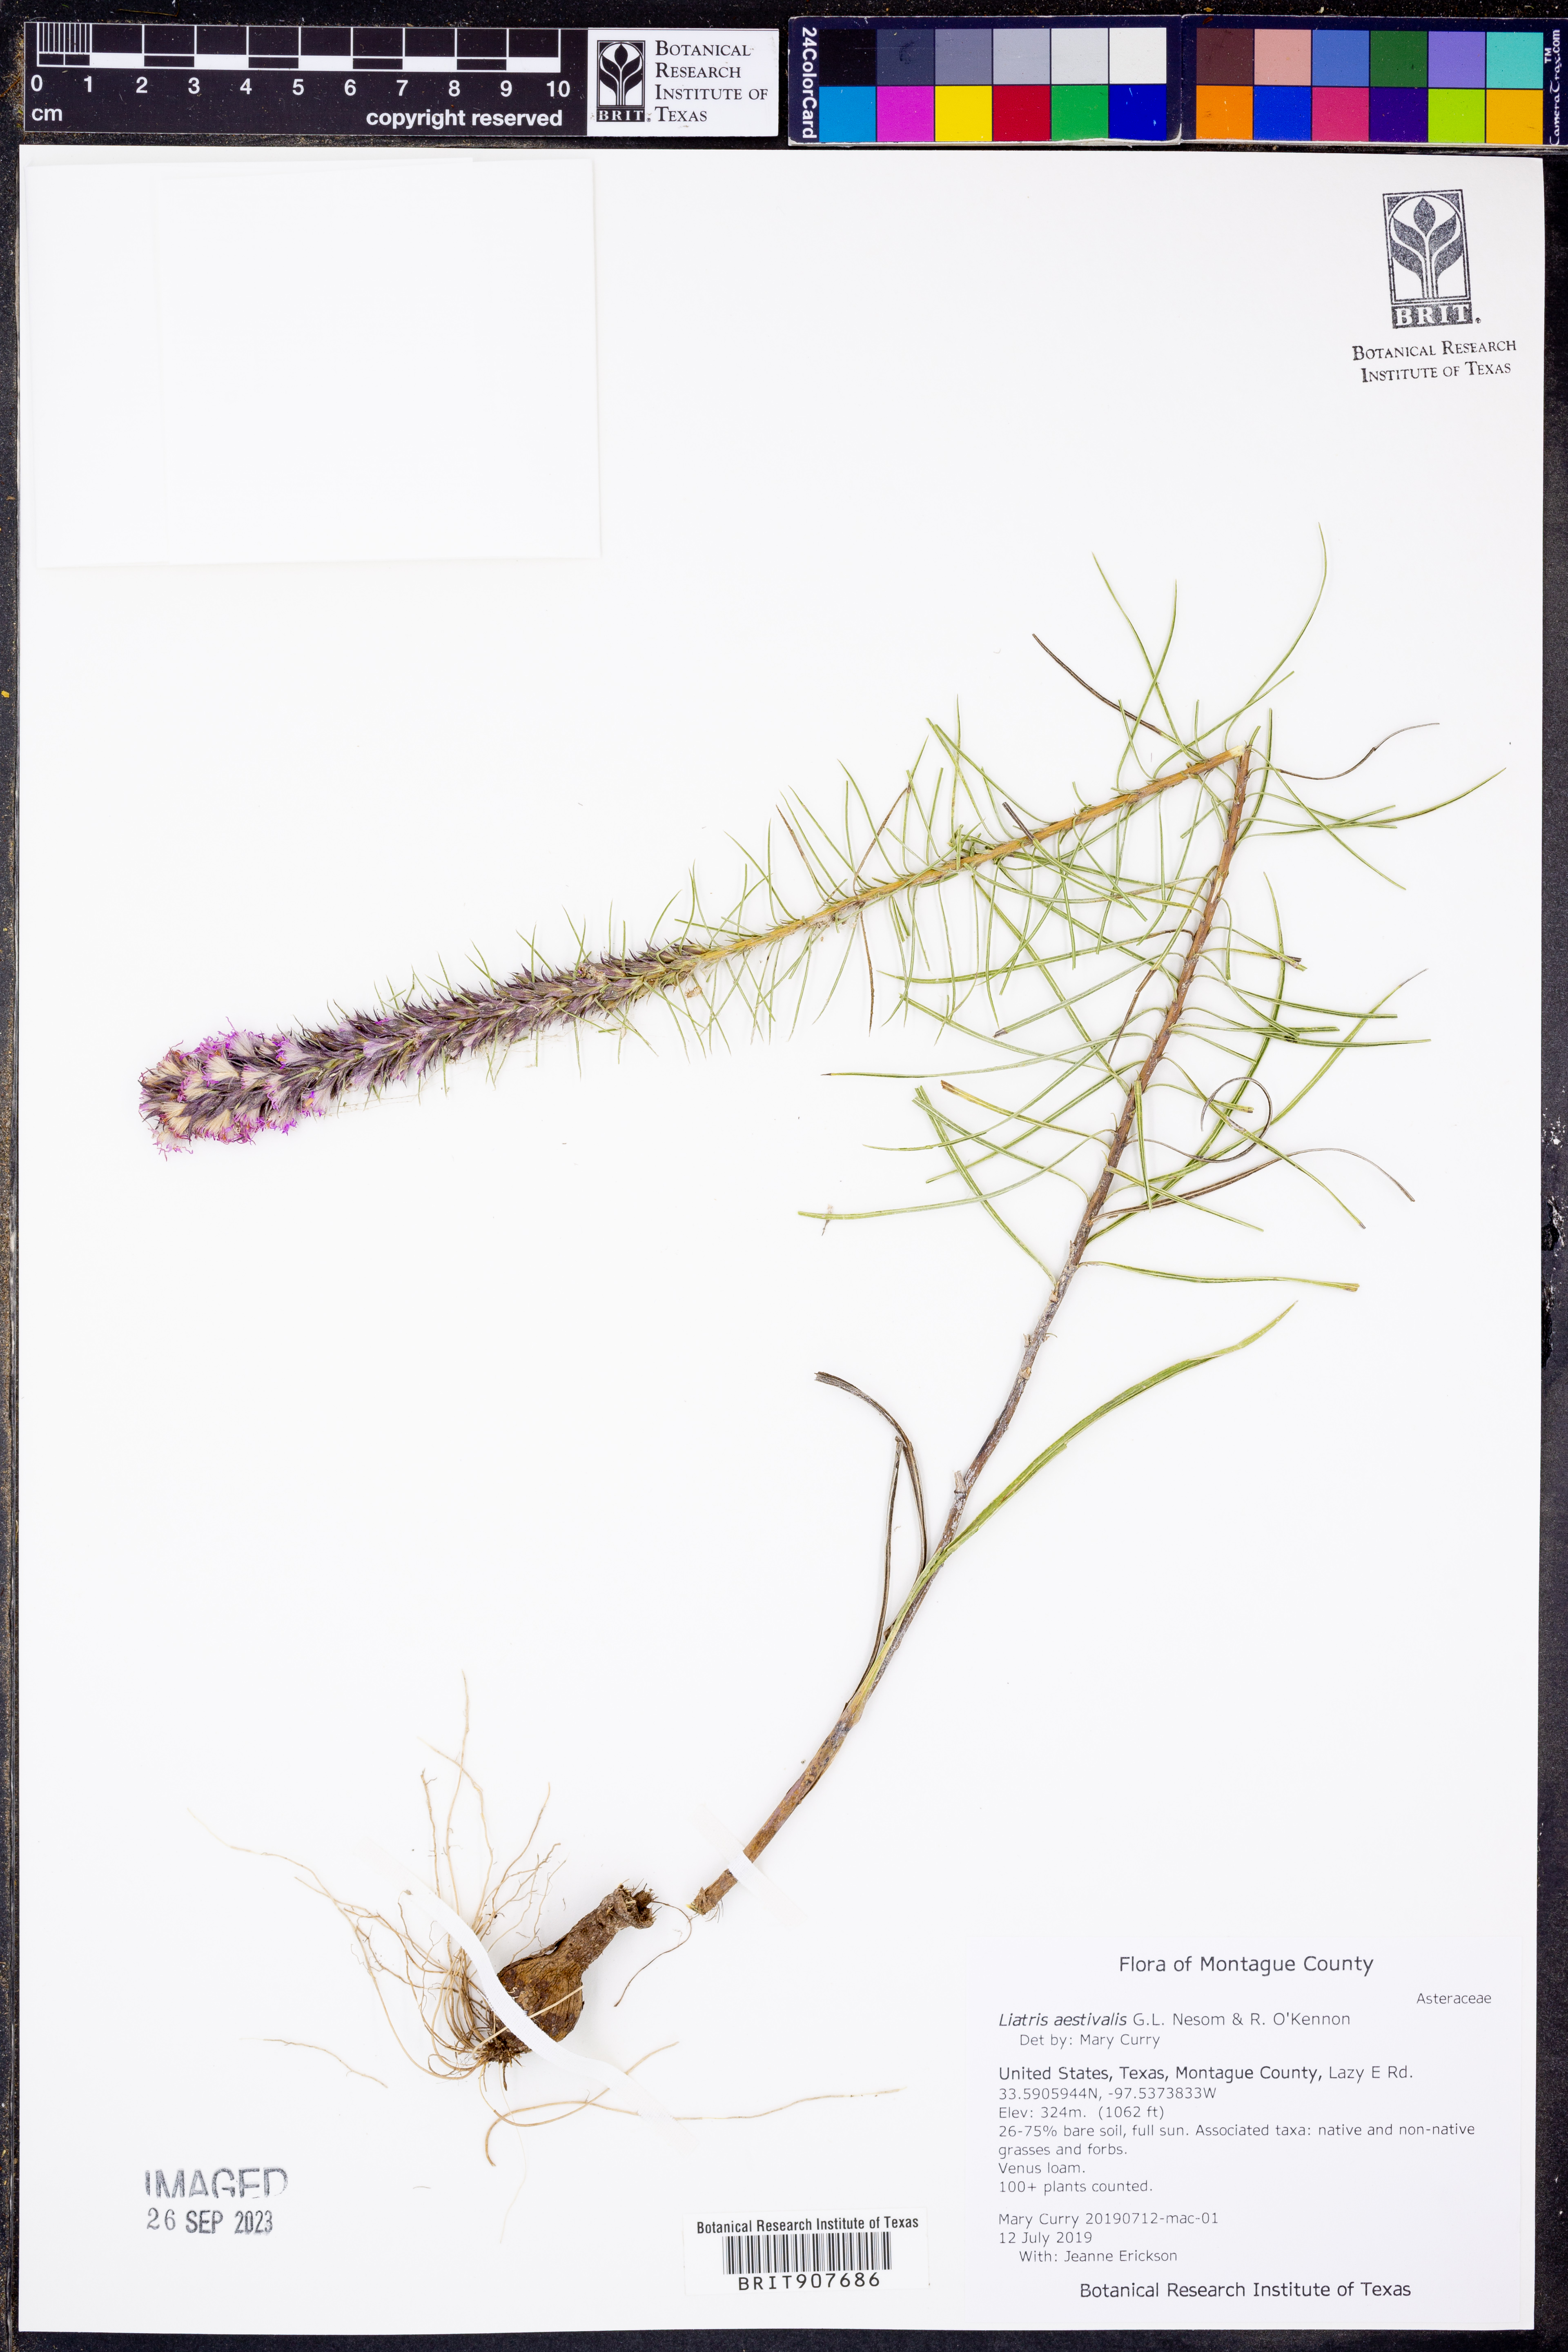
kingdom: Plantae
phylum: Tracheophyta
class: Magnoliopsida
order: Asterales
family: Asteraceae
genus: Liatris
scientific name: Liatris aestivalis
